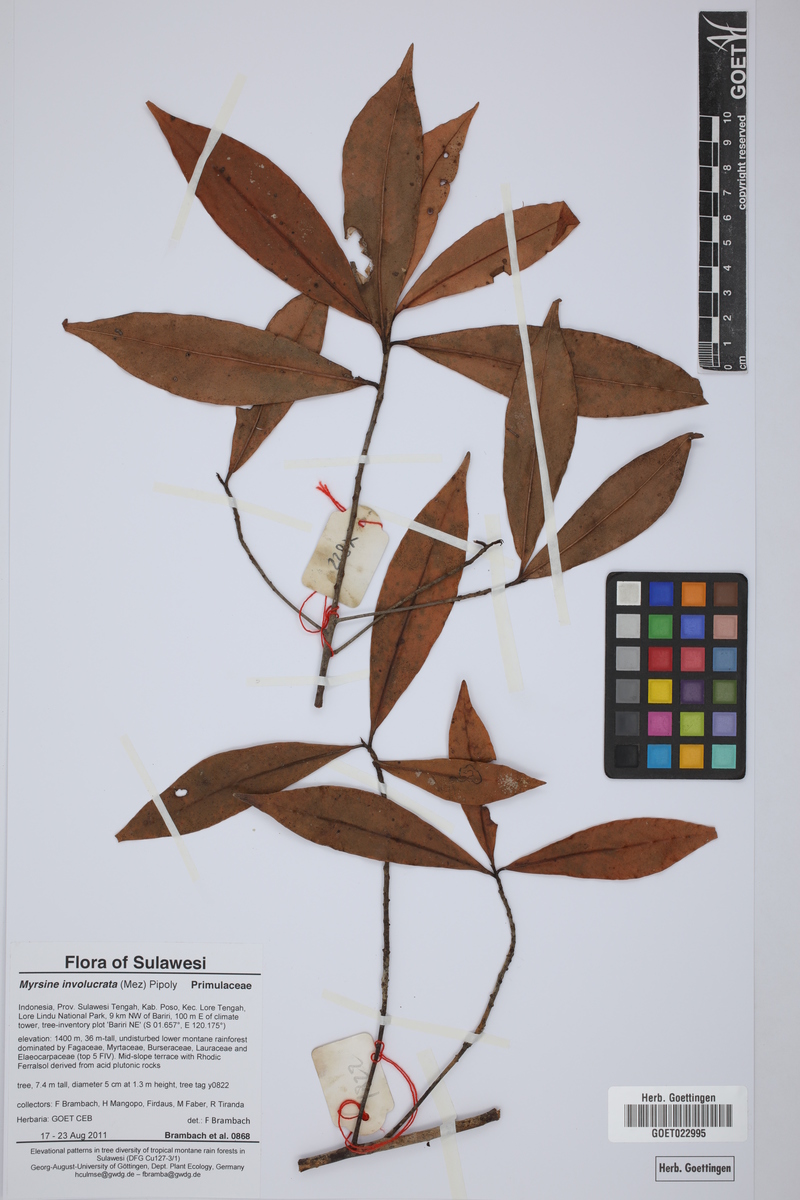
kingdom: Plantae
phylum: Tracheophyta
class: Magnoliopsida
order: Ericales
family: Primulaceae
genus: Myrsine
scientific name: Myrsine involucrata
